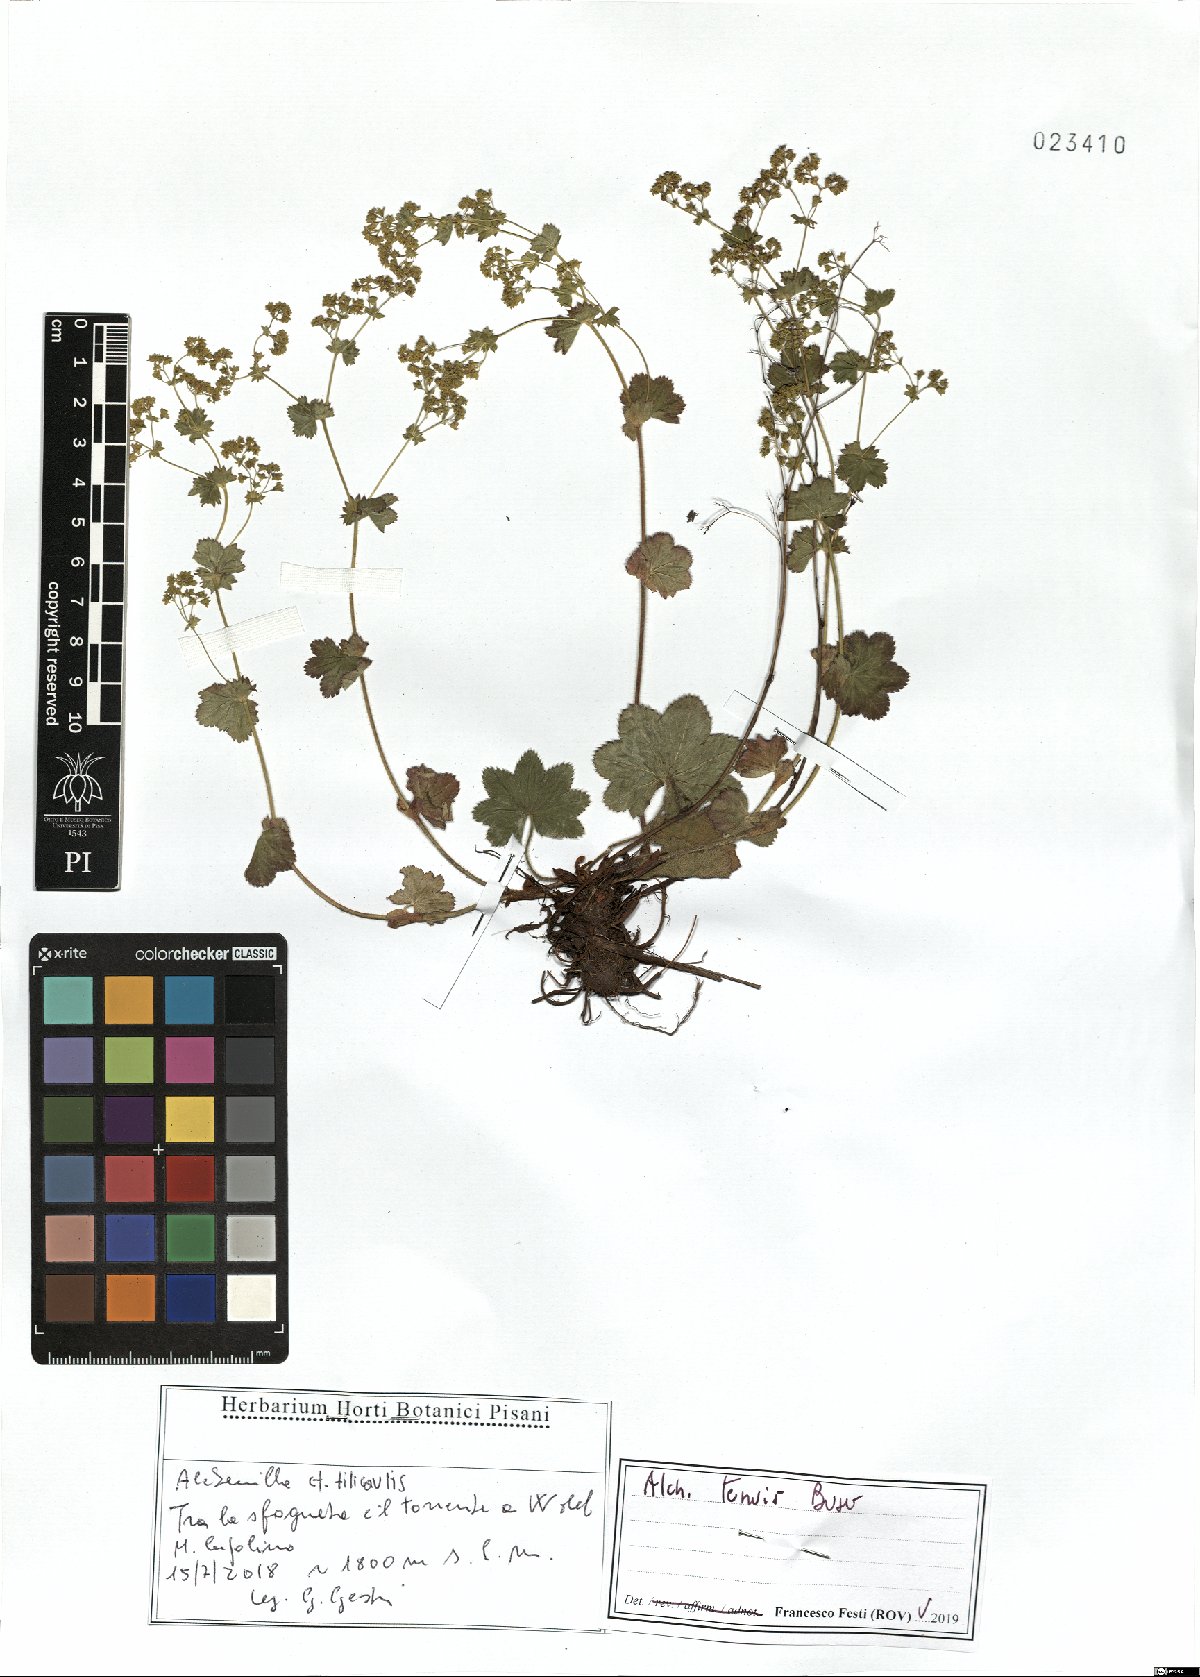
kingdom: Plantae
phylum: Tracheophyta
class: Magnoliopsida
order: Rosales
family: Rosaceae
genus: Alchemilla
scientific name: Alchemilla tenuis
